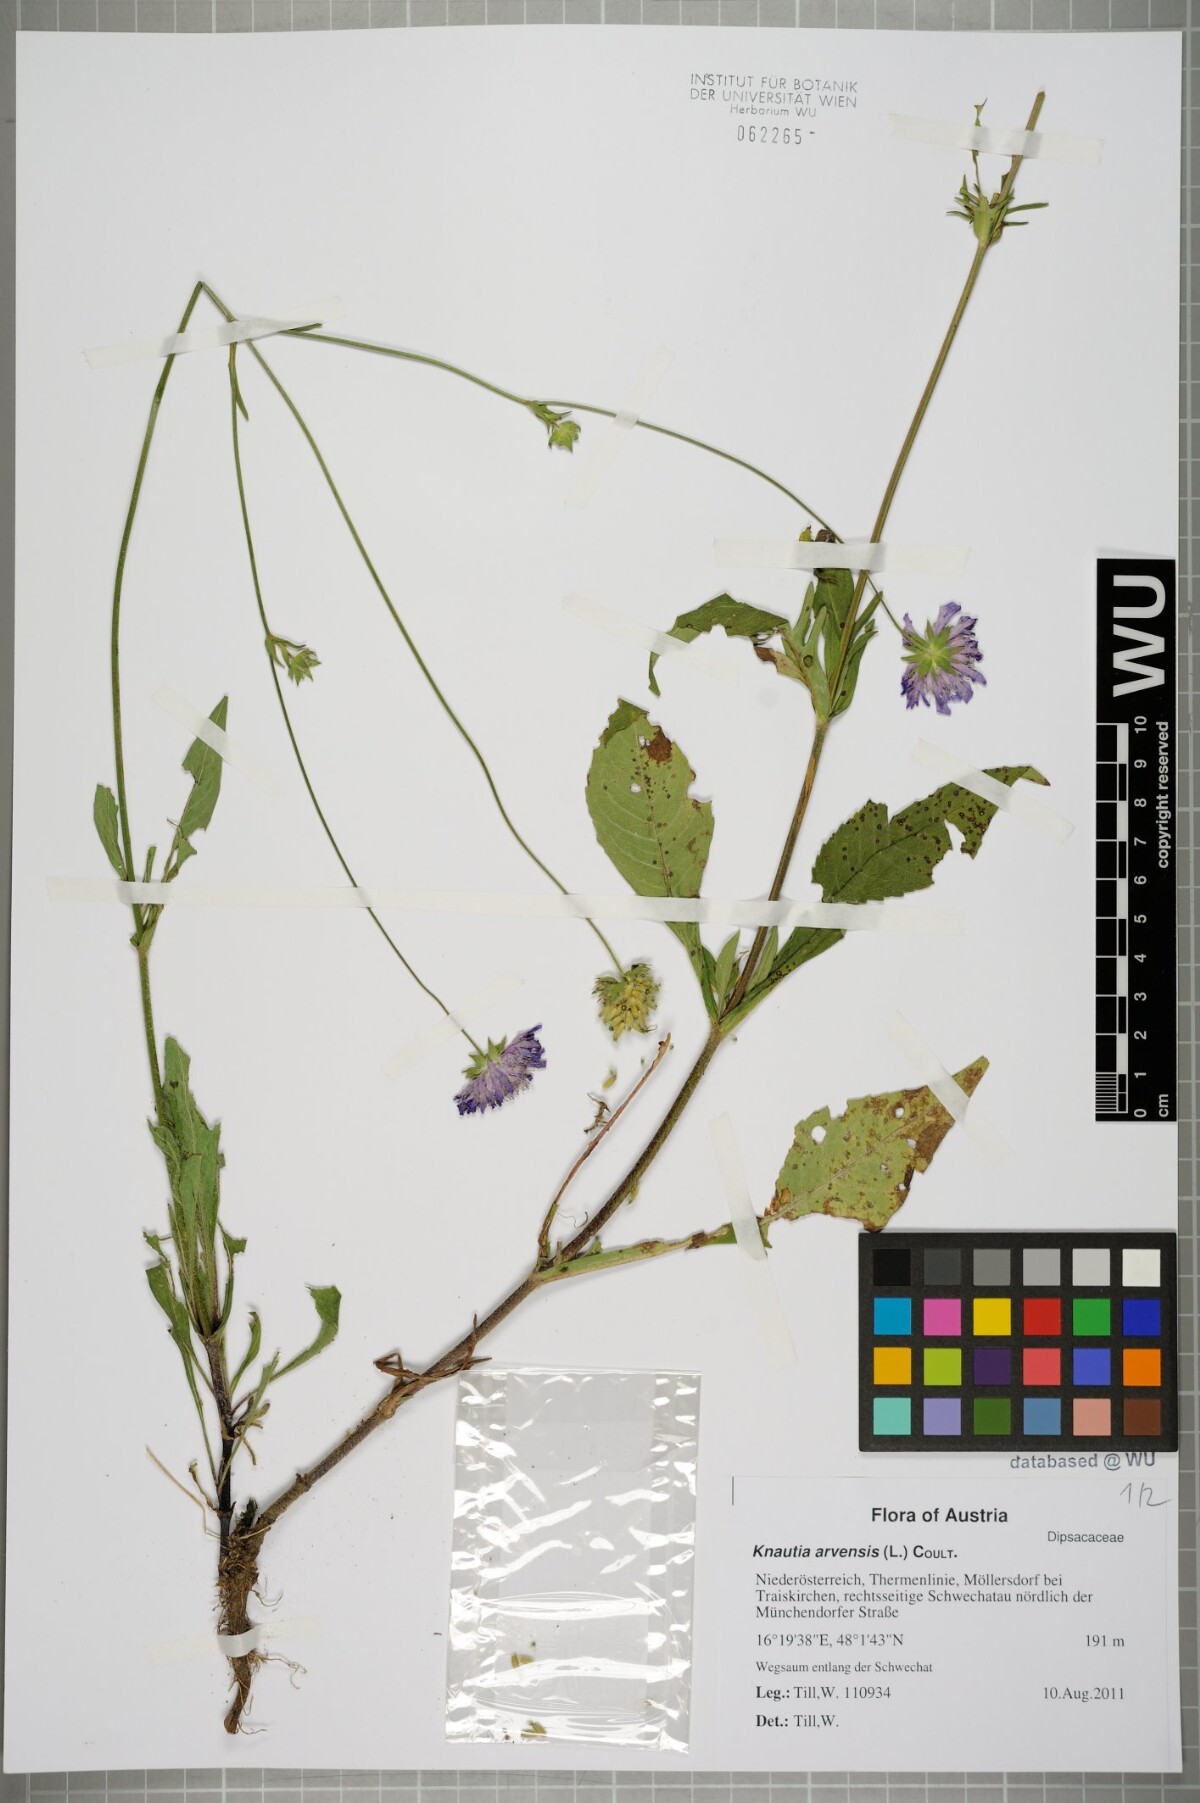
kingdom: Plantae
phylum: Tracheophyta
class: Magnoliopsida
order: Dipsacales
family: Caprifoliaceae
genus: Knautia
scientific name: Knautia arvensis
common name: Field scabiosa
